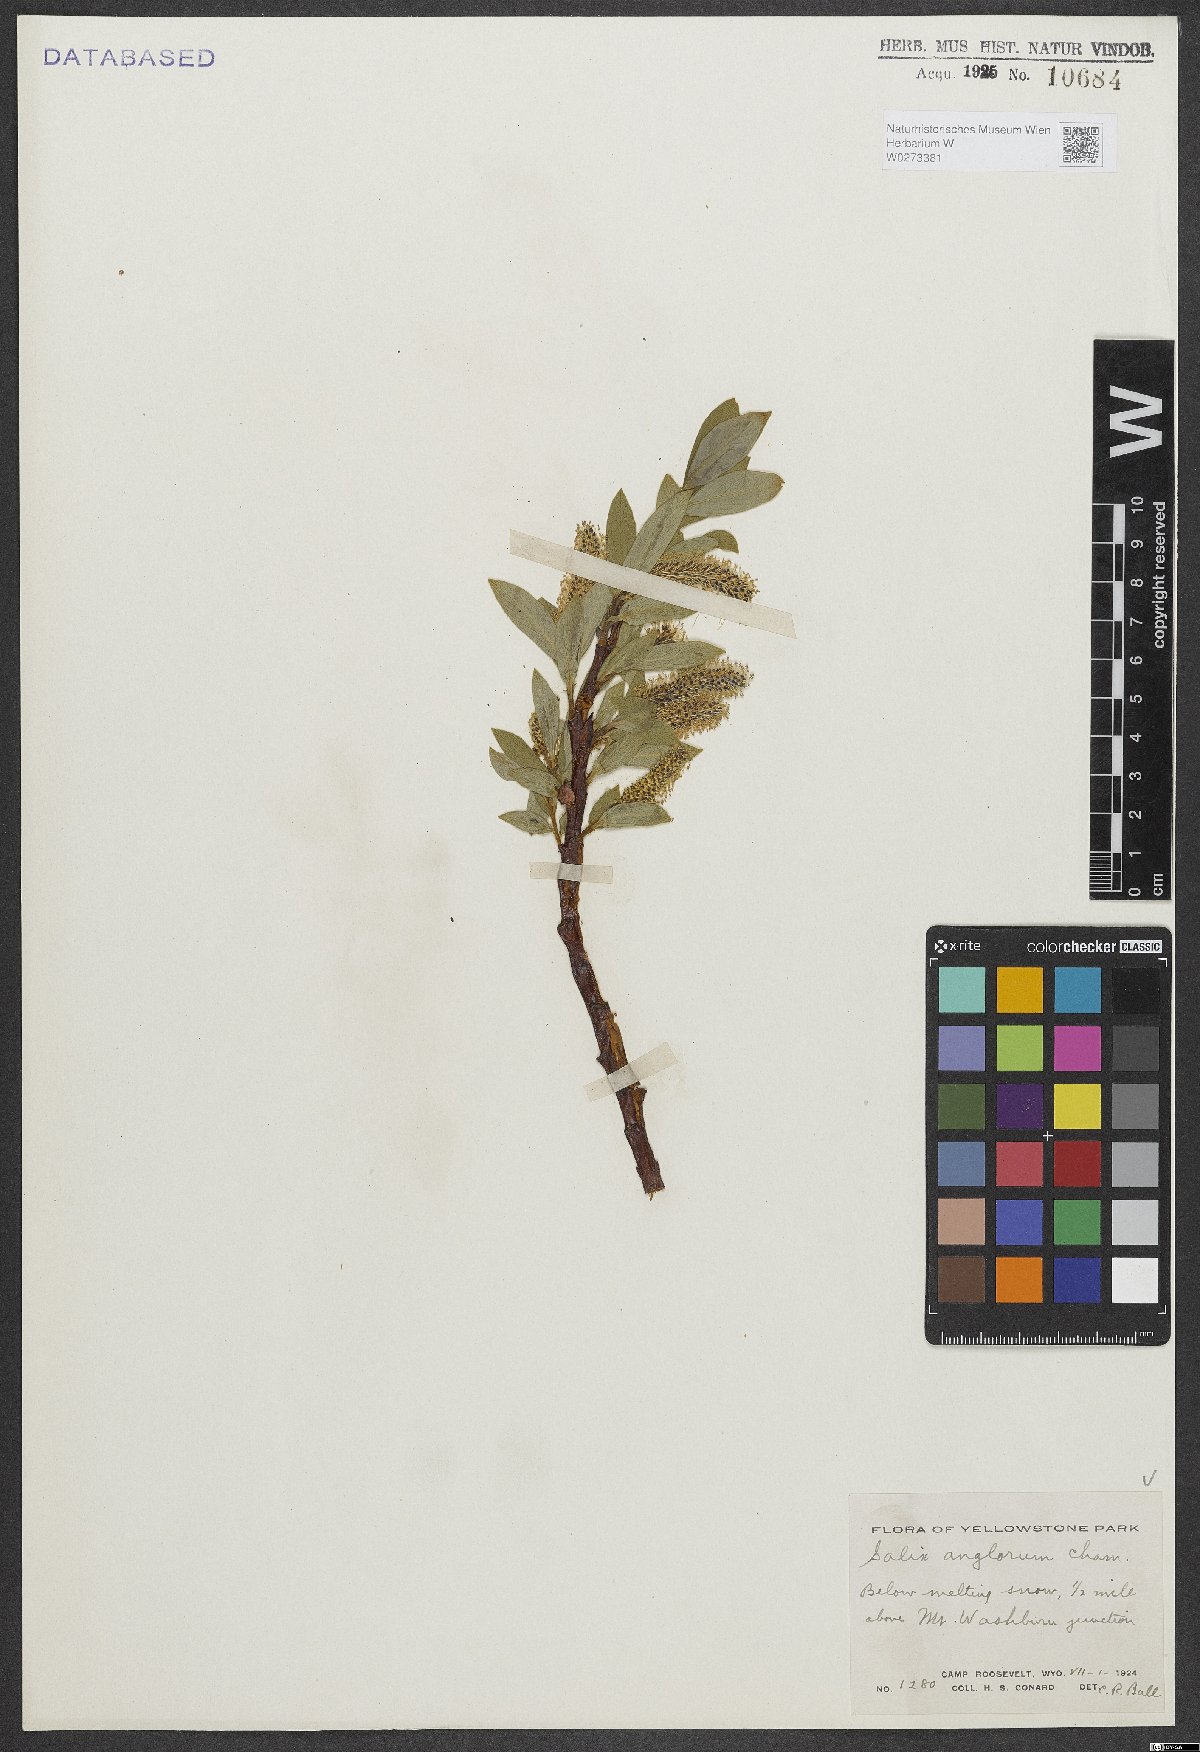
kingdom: Plantae
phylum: Tracheophyta
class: Magnoliopsida
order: Malpighiales
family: Salicaceae
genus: Salix
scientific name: Salix arctica
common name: Arctic willow
